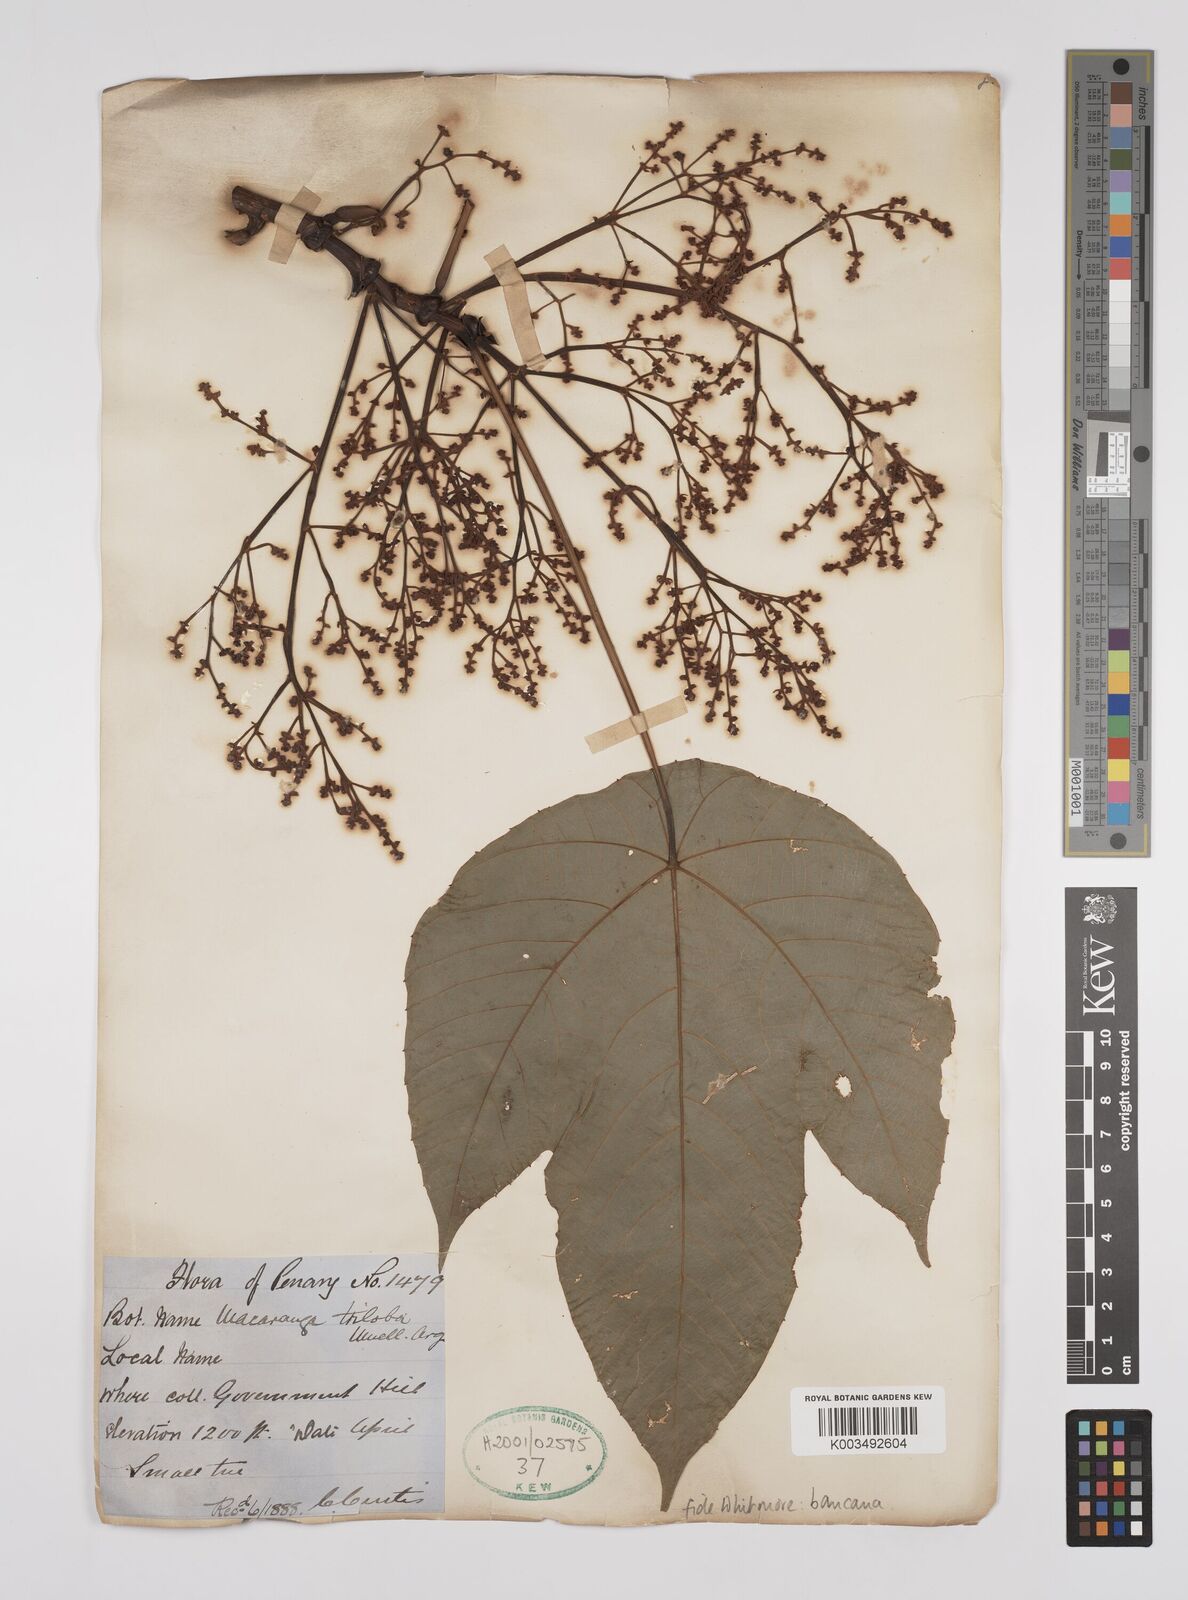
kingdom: Plantae
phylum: Tracheophyta
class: Magnoliopsida
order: Malpighiales
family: Euphorbiaceae
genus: Macaranga
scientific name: Macaranga bancana
